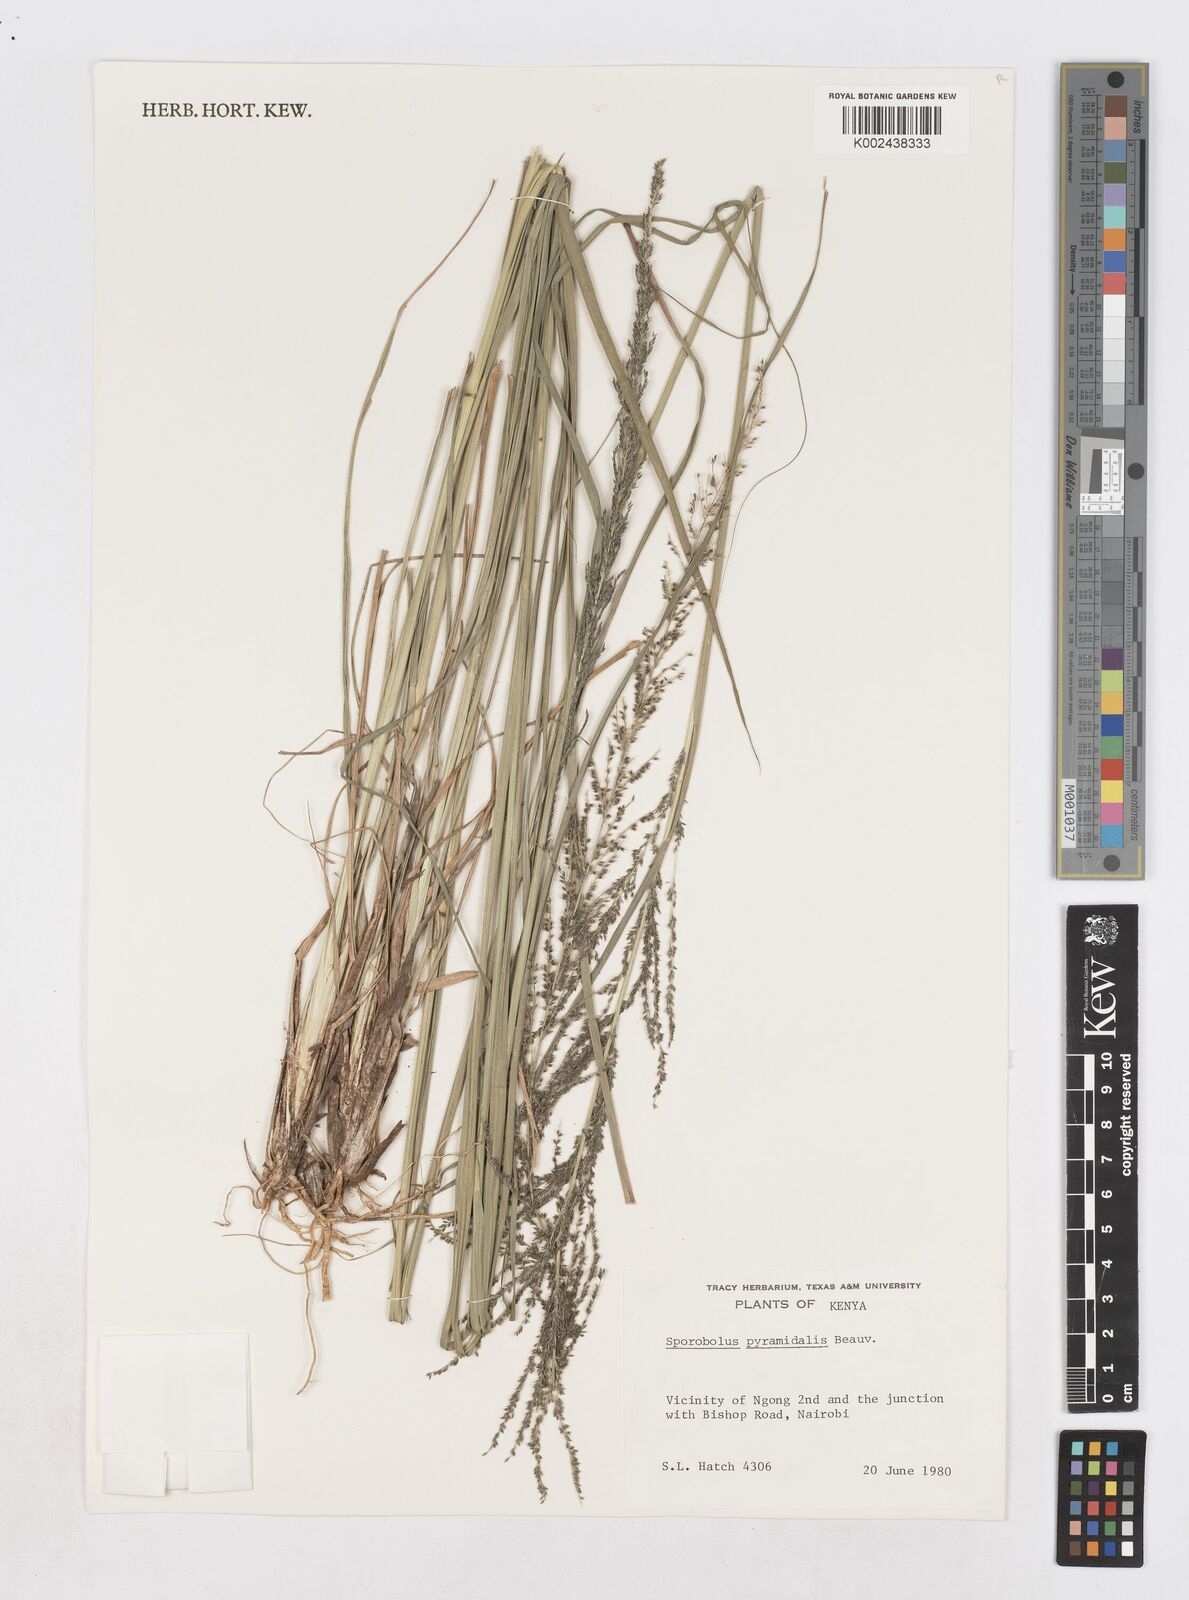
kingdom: Plantae
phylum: Tracheophyta
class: Liliopsida
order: Poales
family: Poaceae
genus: Sporobolus
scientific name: Sporobolus pyramidalis
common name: West indian dropseed
